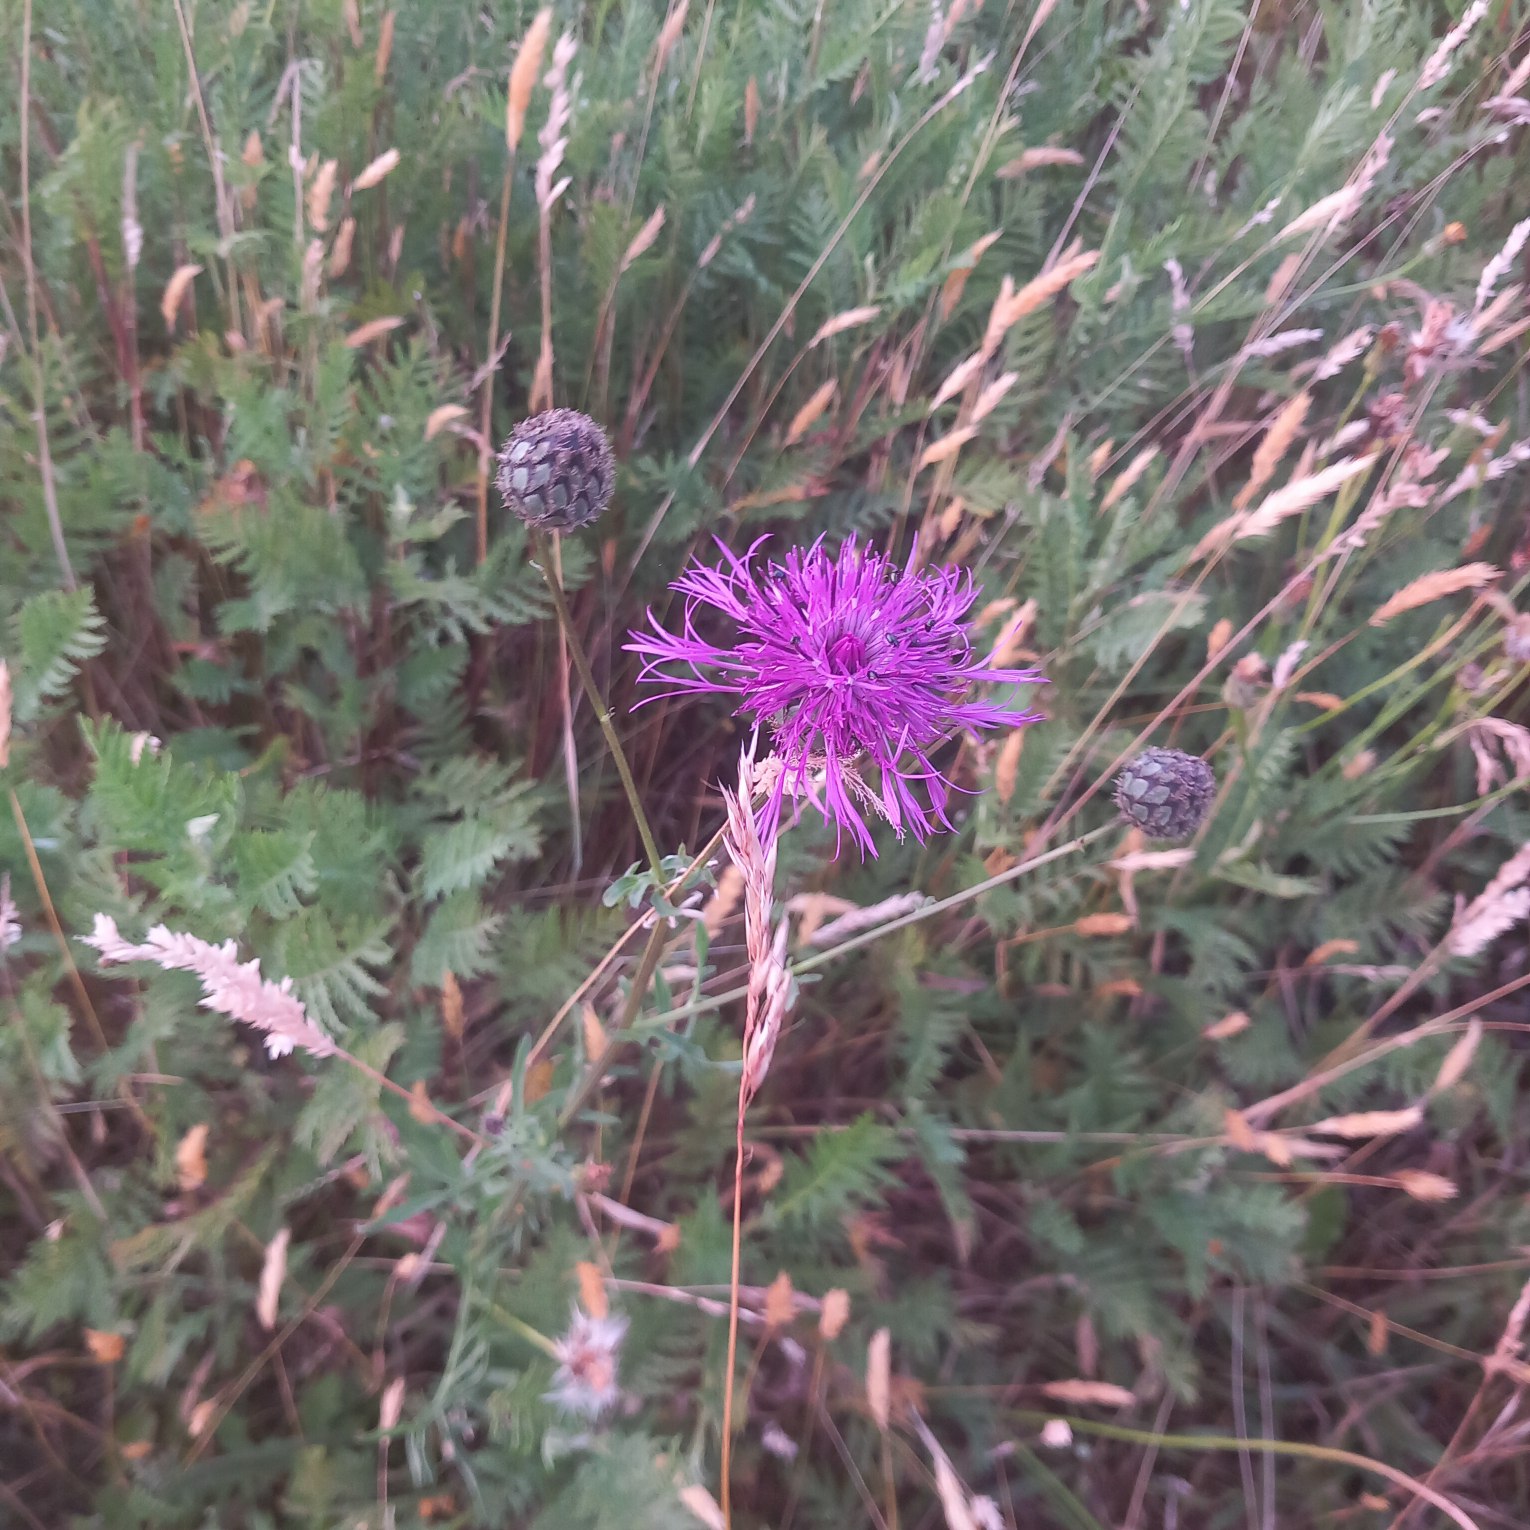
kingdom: Plantae
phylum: Tracheophyta
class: Magnoliopsida
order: Asterales
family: Asteraceae
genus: Centaurea
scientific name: Centaurea scabiosa
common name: Stor knopurt
